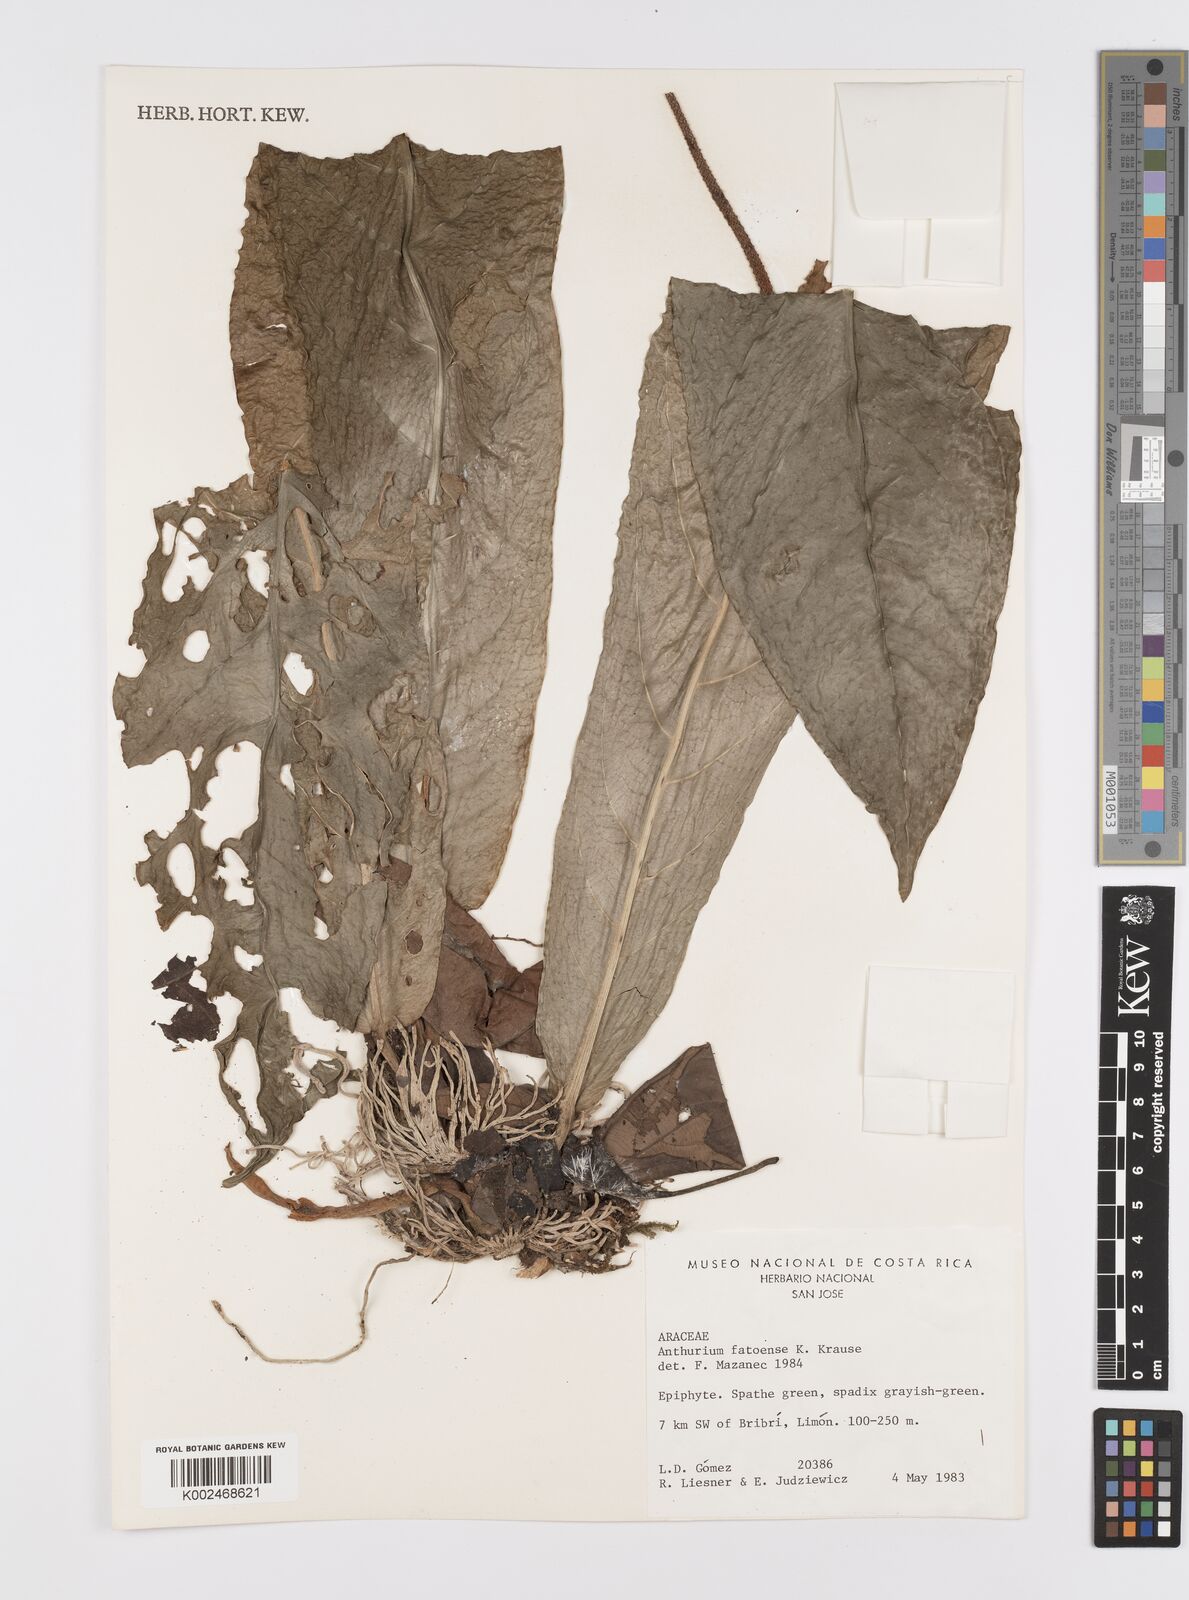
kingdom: Plantae
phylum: Tracheophyta
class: Liliopsida
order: Alismatales
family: Araceae
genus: Anthurium
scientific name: Anthurium fatoense
